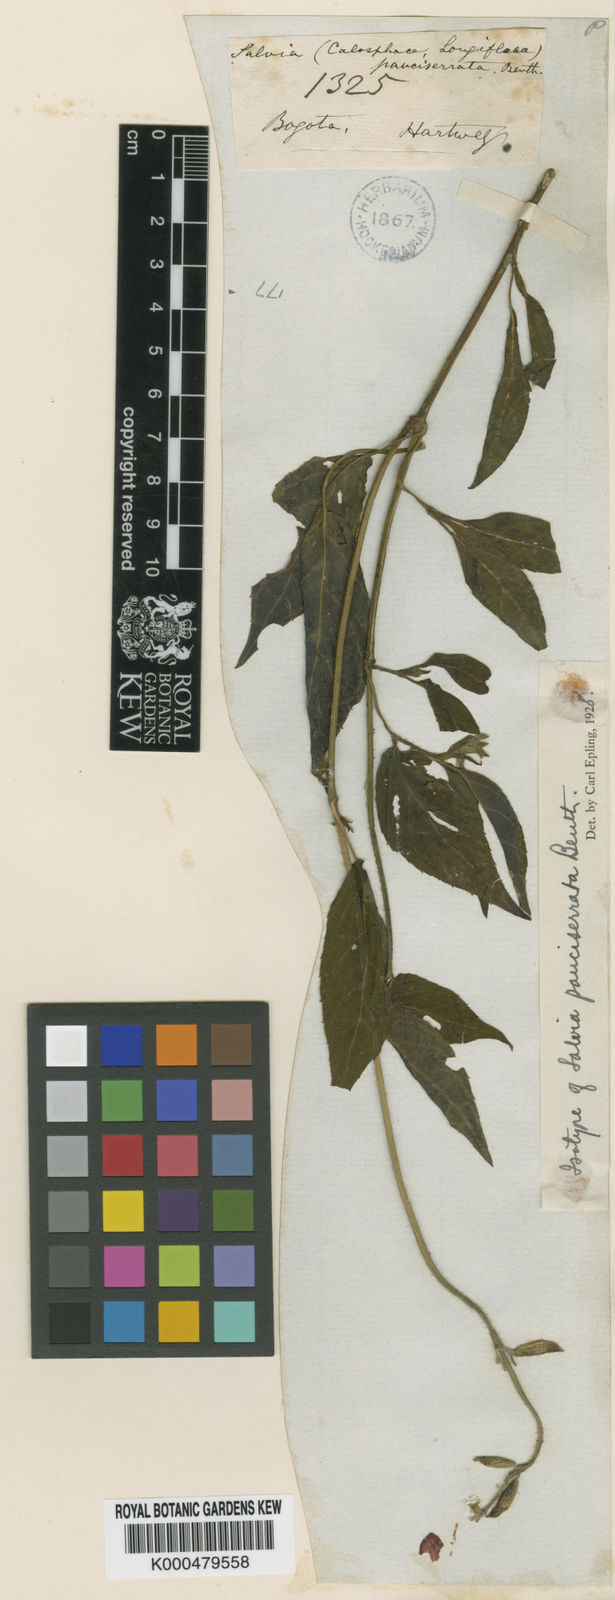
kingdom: Plantae
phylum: Tracheophyta
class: Magnoliopsida
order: Lamiales
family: Lamiaceae
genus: Salvia
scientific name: Salvia pauciserrata
